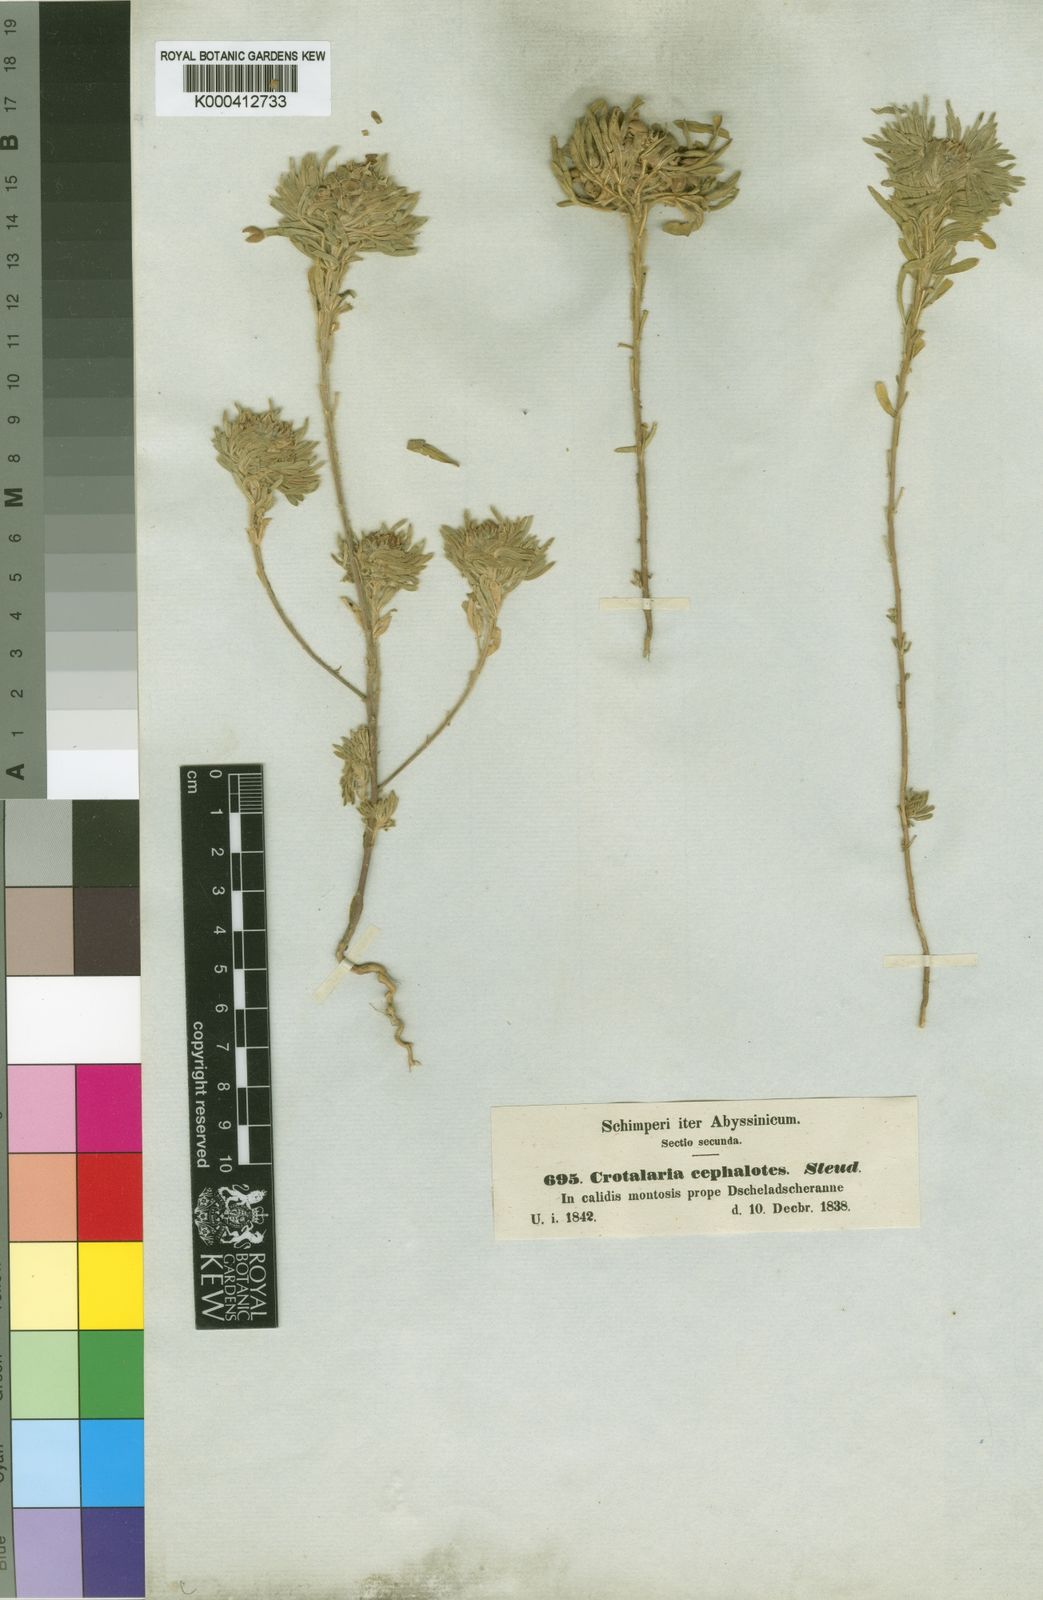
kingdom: Plantae
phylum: Tracheophyta
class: Magnoliopsida
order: Fabales
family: Fabaceae
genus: Crotalaria
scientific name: Crotalaria cephalotes
